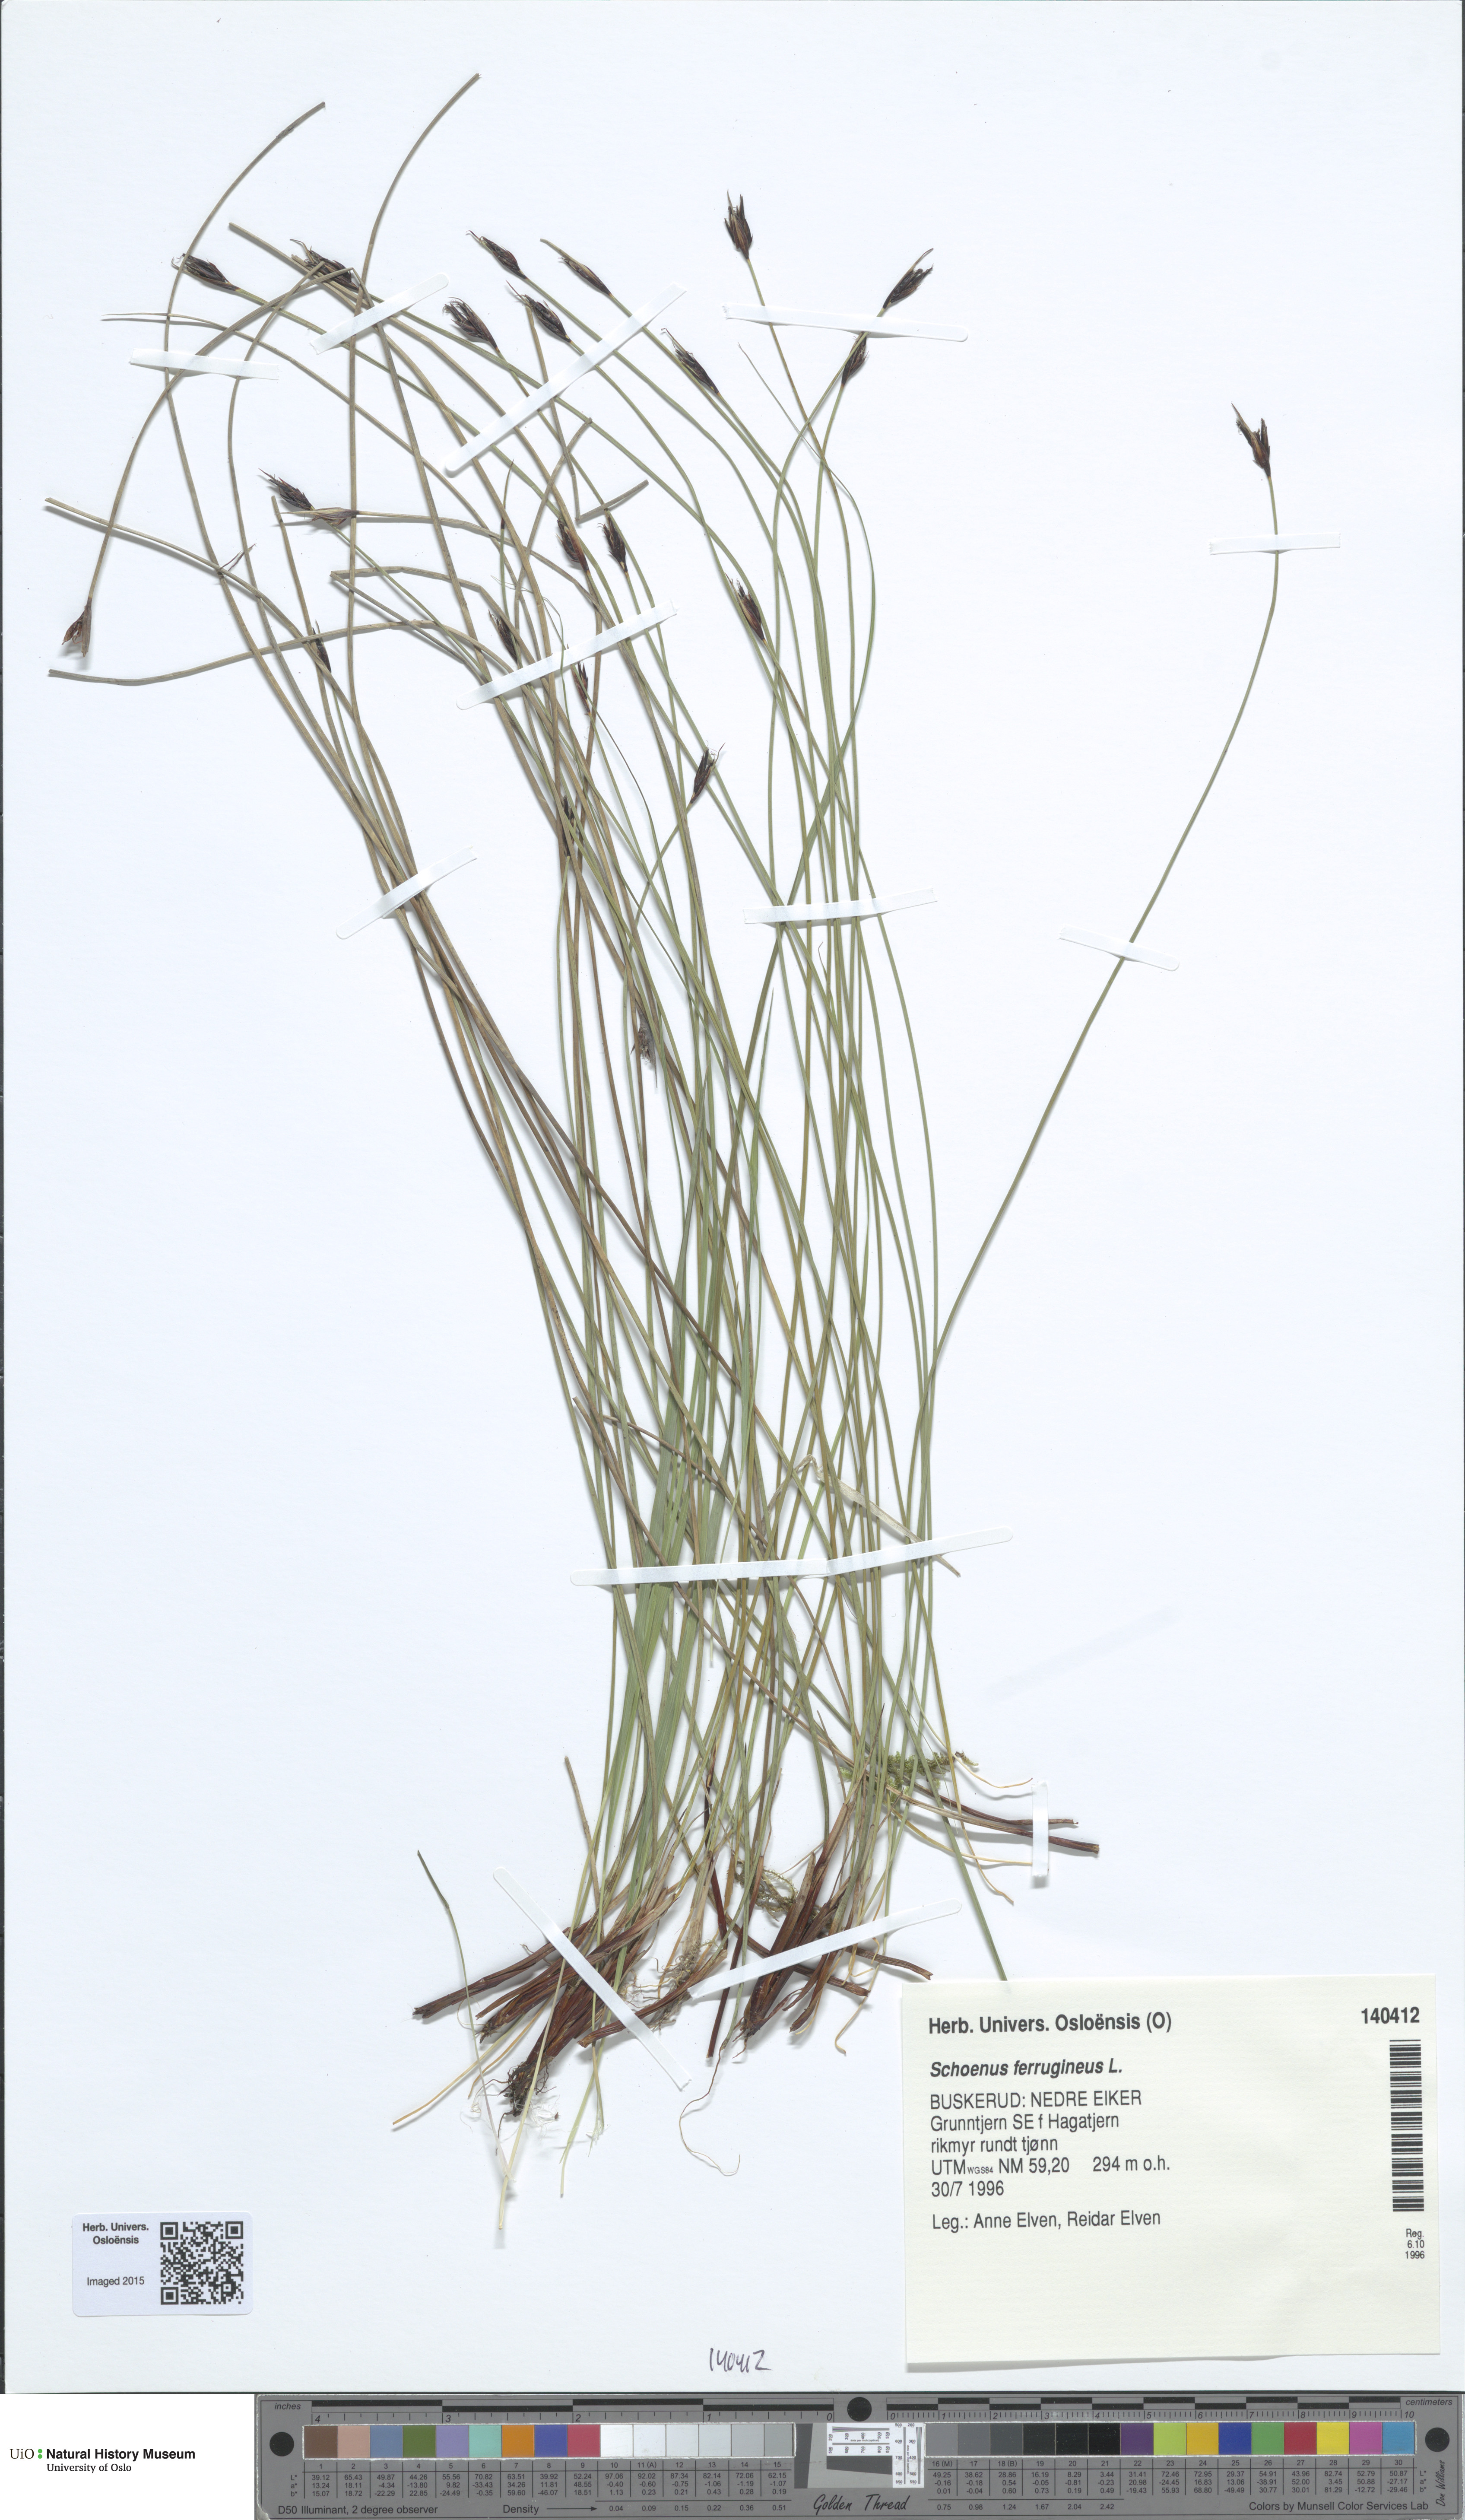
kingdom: Plantae
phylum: Tracheophyta
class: Liliopsida
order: Poales
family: Cyperaceae
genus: Schoenus
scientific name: Schoenus ferrugineus
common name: Brown bog-rush
